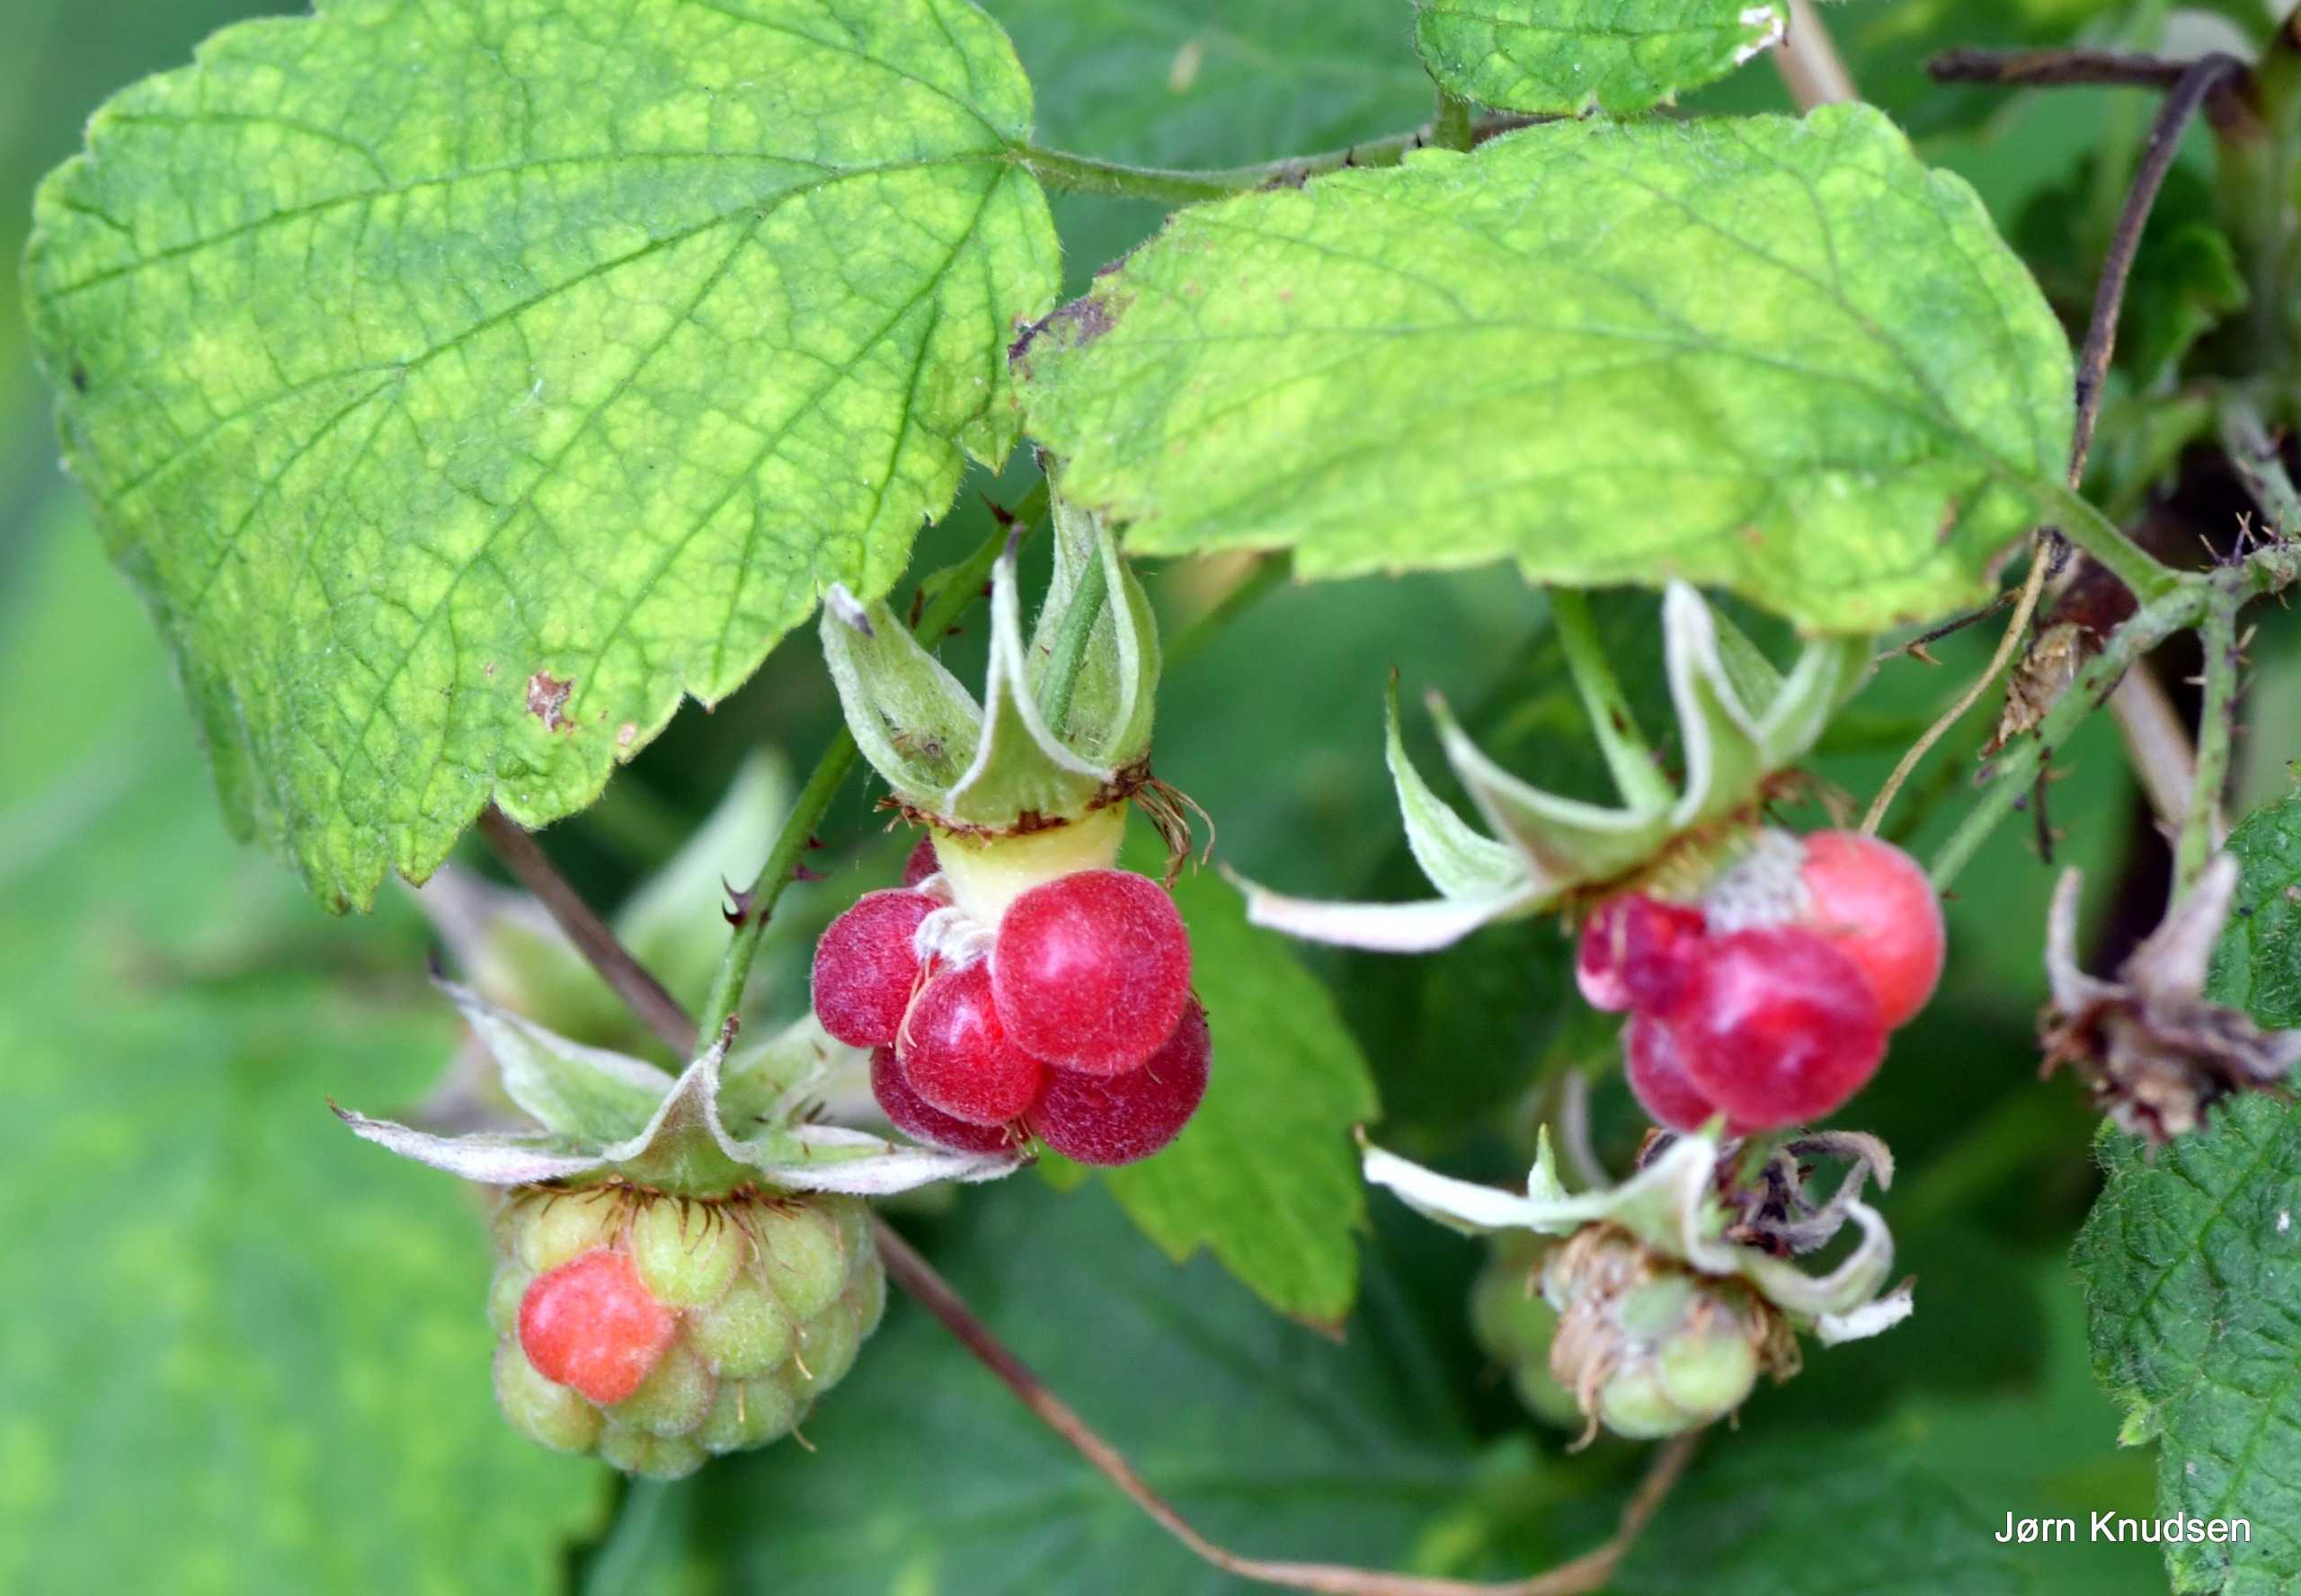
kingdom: Plantae
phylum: Tracheophyta
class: Magnoliopsida
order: Rosales
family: Rosaceae
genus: Rubus
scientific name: Rubus idaeus
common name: Hindbær
